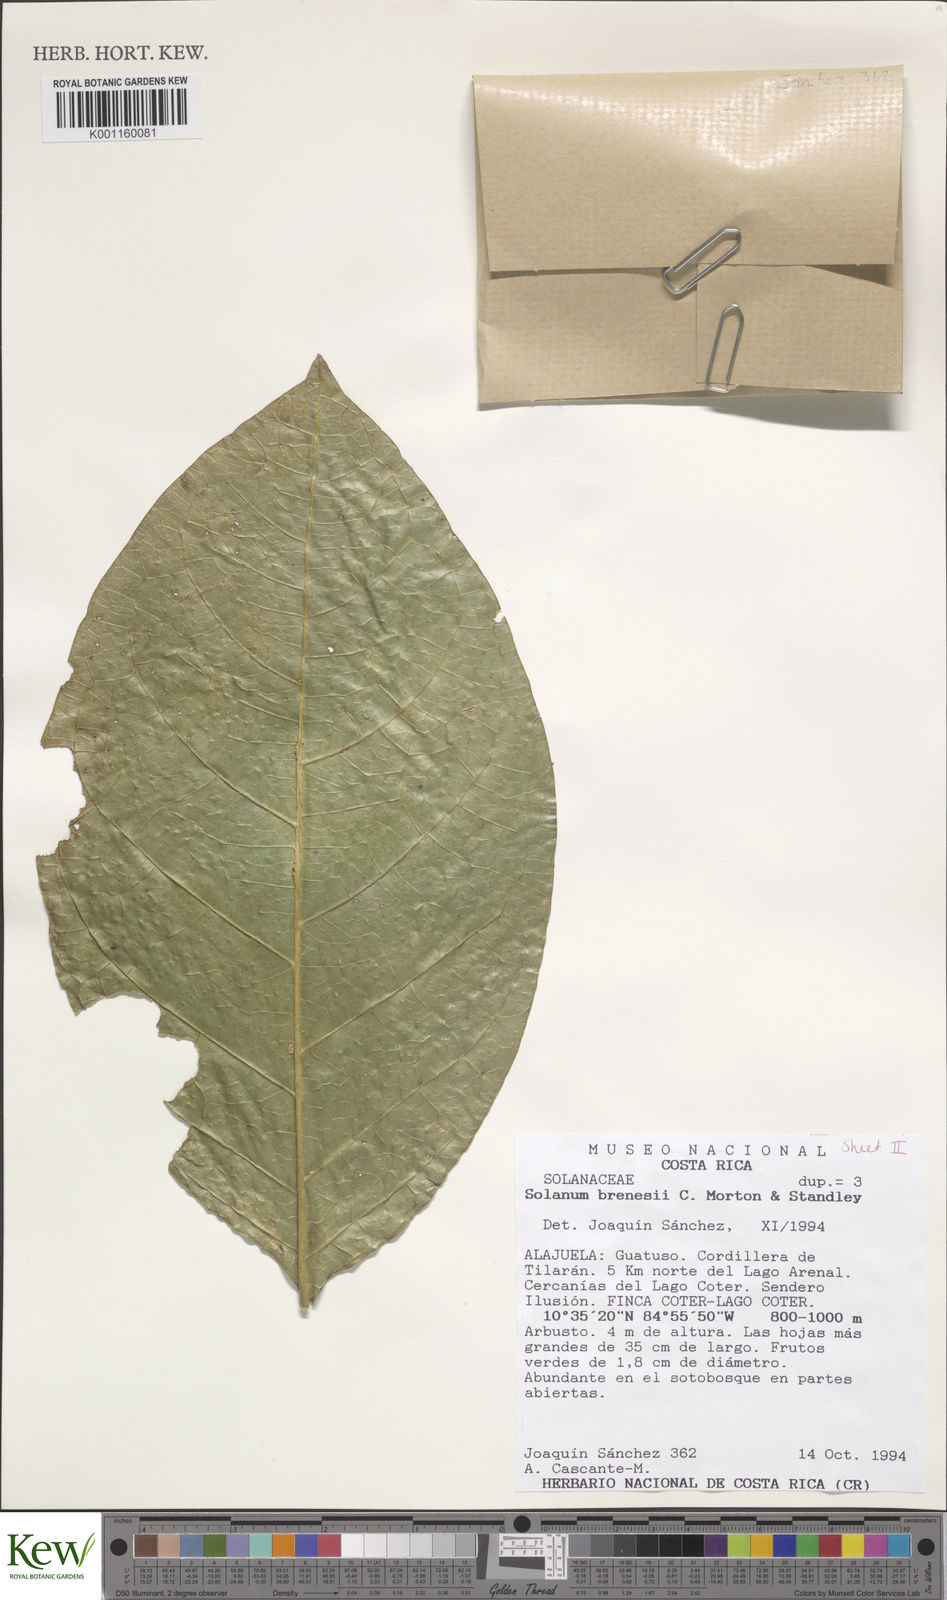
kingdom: Plantae
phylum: Tracheophyta
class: Magnoliopsida
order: Solanales
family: Solanaceae
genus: Solanum
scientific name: Solanum rovirosanum
